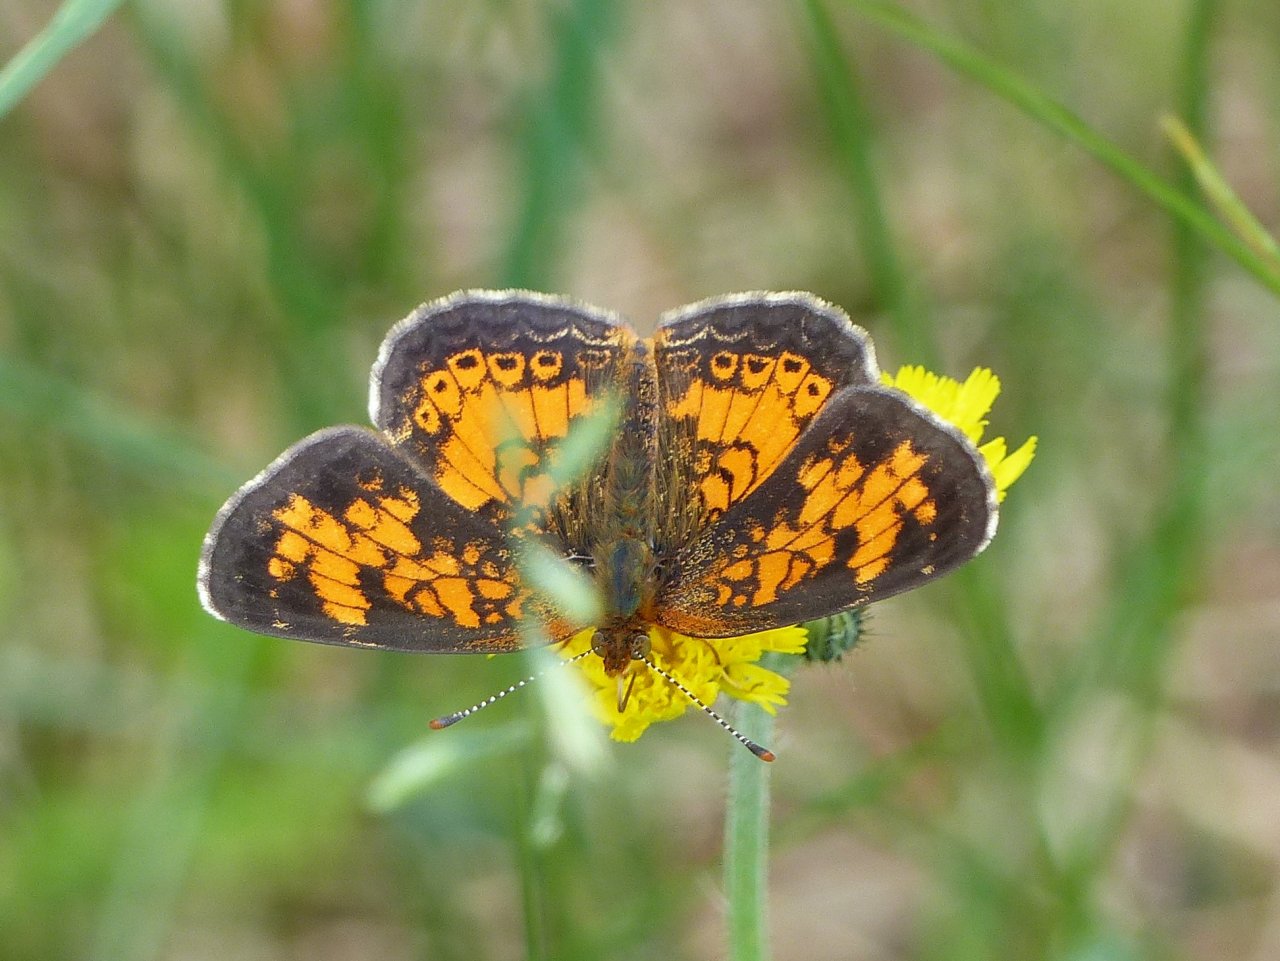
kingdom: Animalia
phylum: Arthropoda
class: Insecta
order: Lepidoptera
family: Nymphalidae
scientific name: Nymphalidae
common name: Brushfoots
